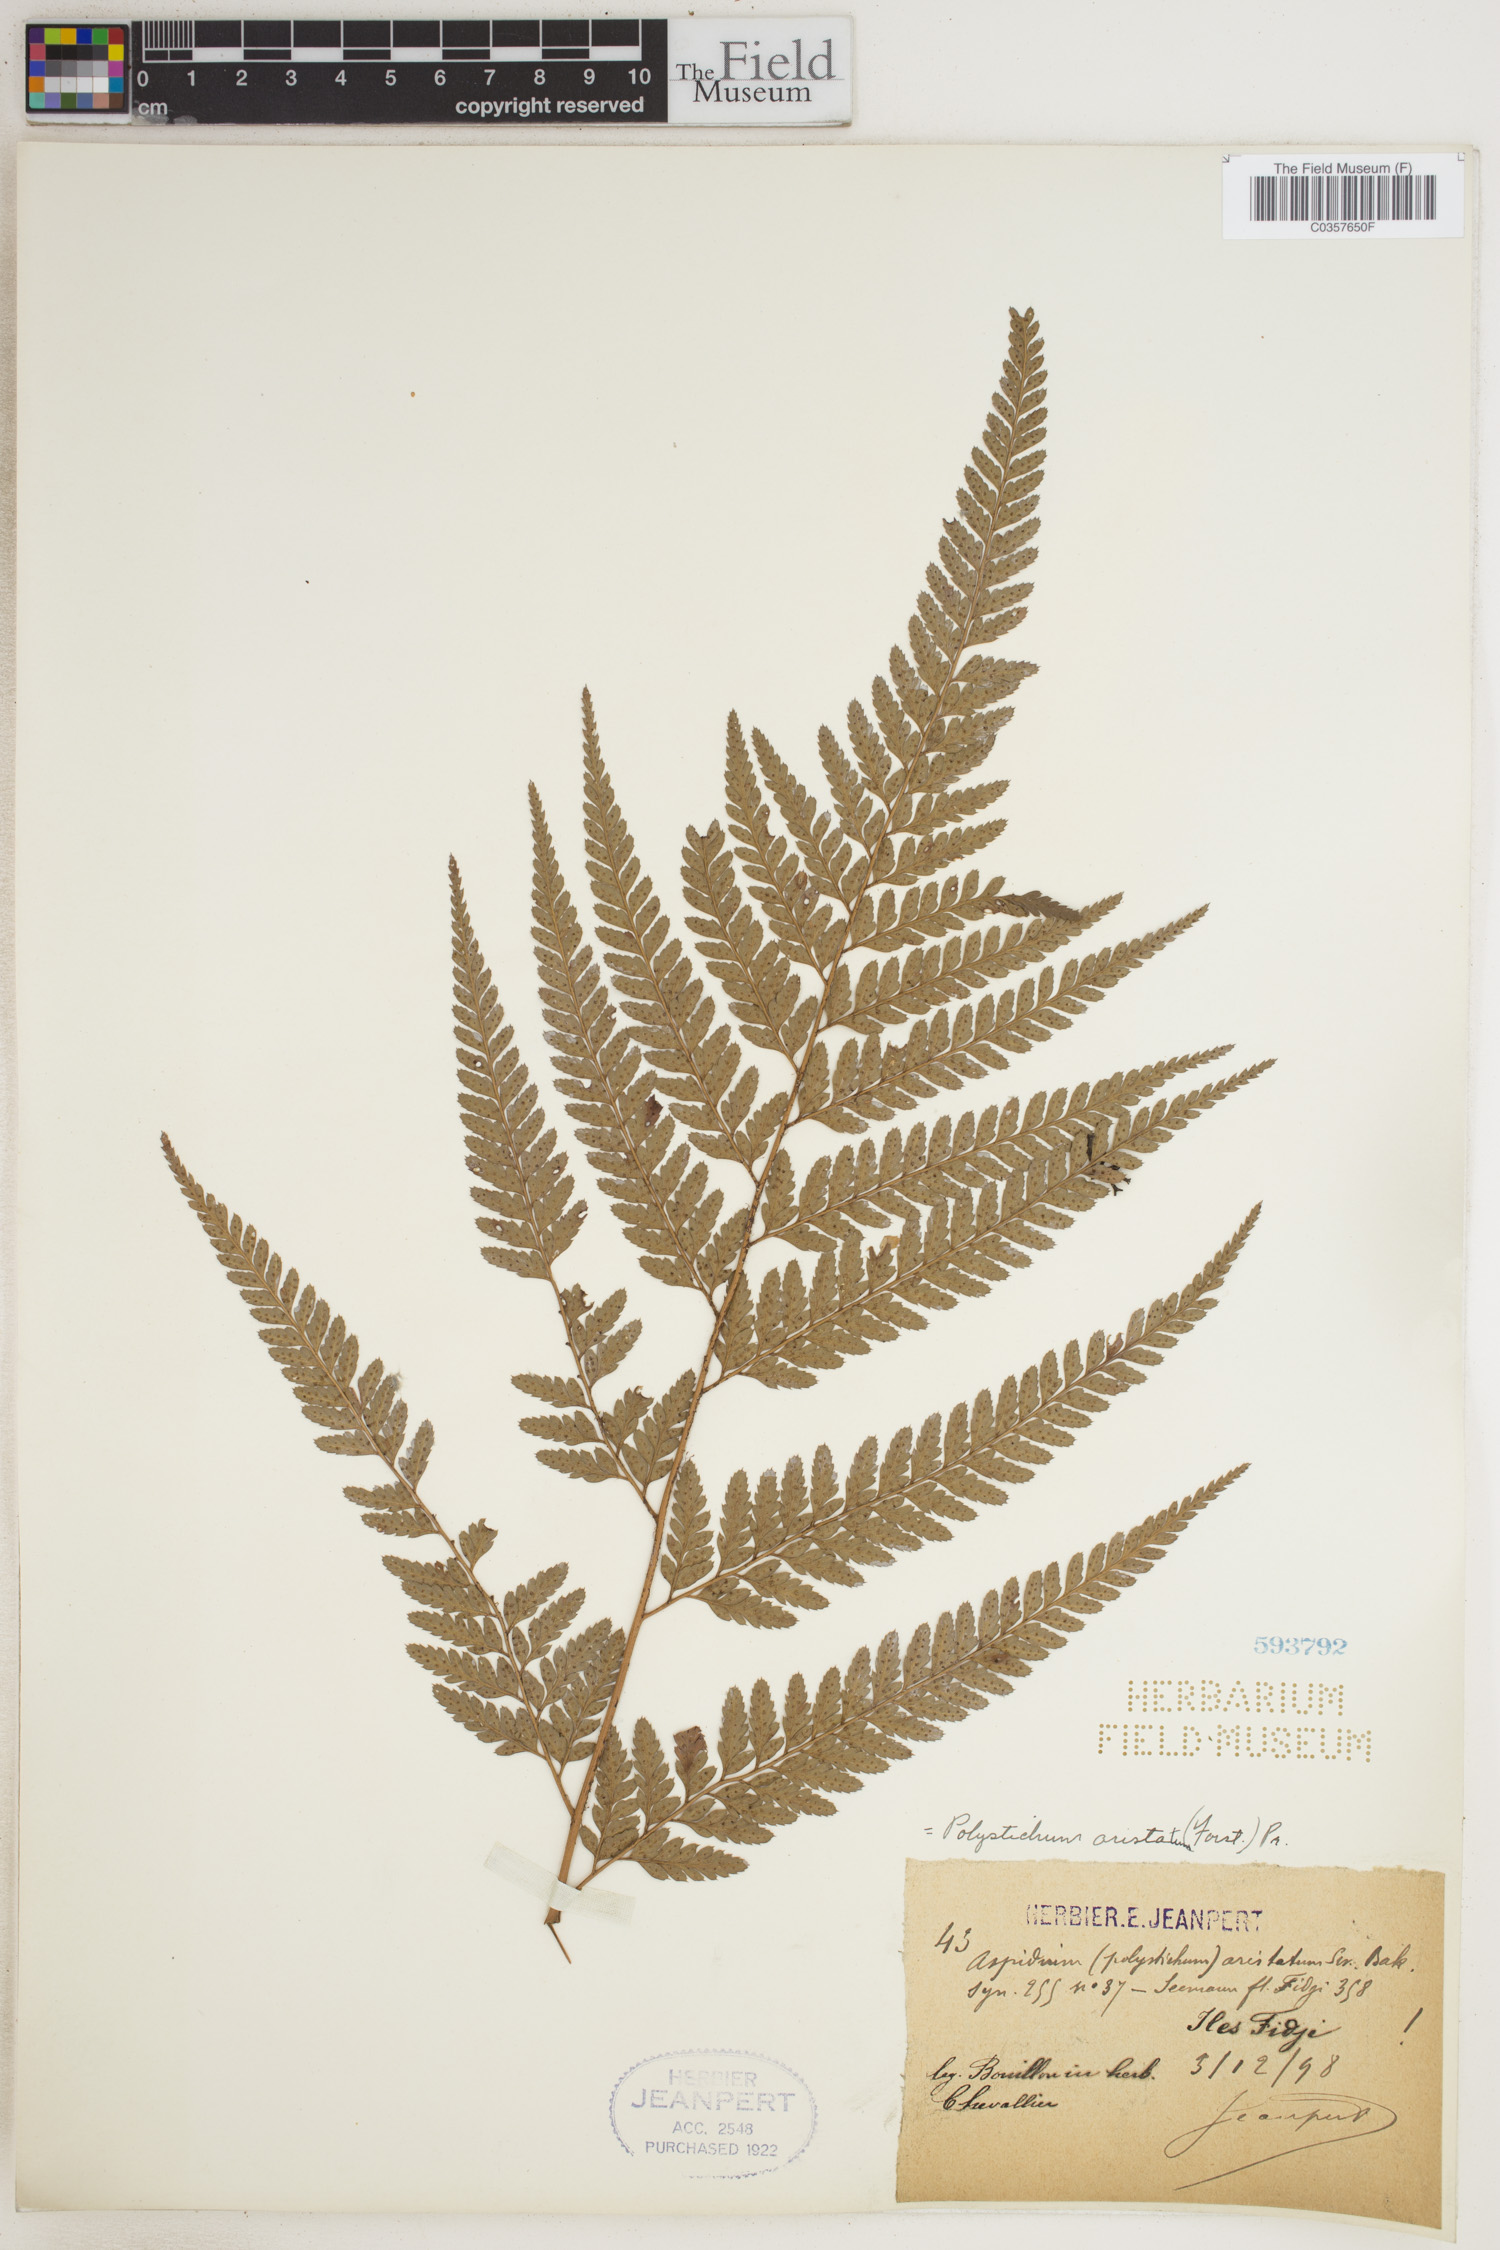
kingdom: Plantae
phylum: Tracheophyta
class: Polypodiopsida
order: Polypodiales
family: Dryopteridaceae
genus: Polystichum
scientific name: Polystichum aculeatum
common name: Hard shield-fern
